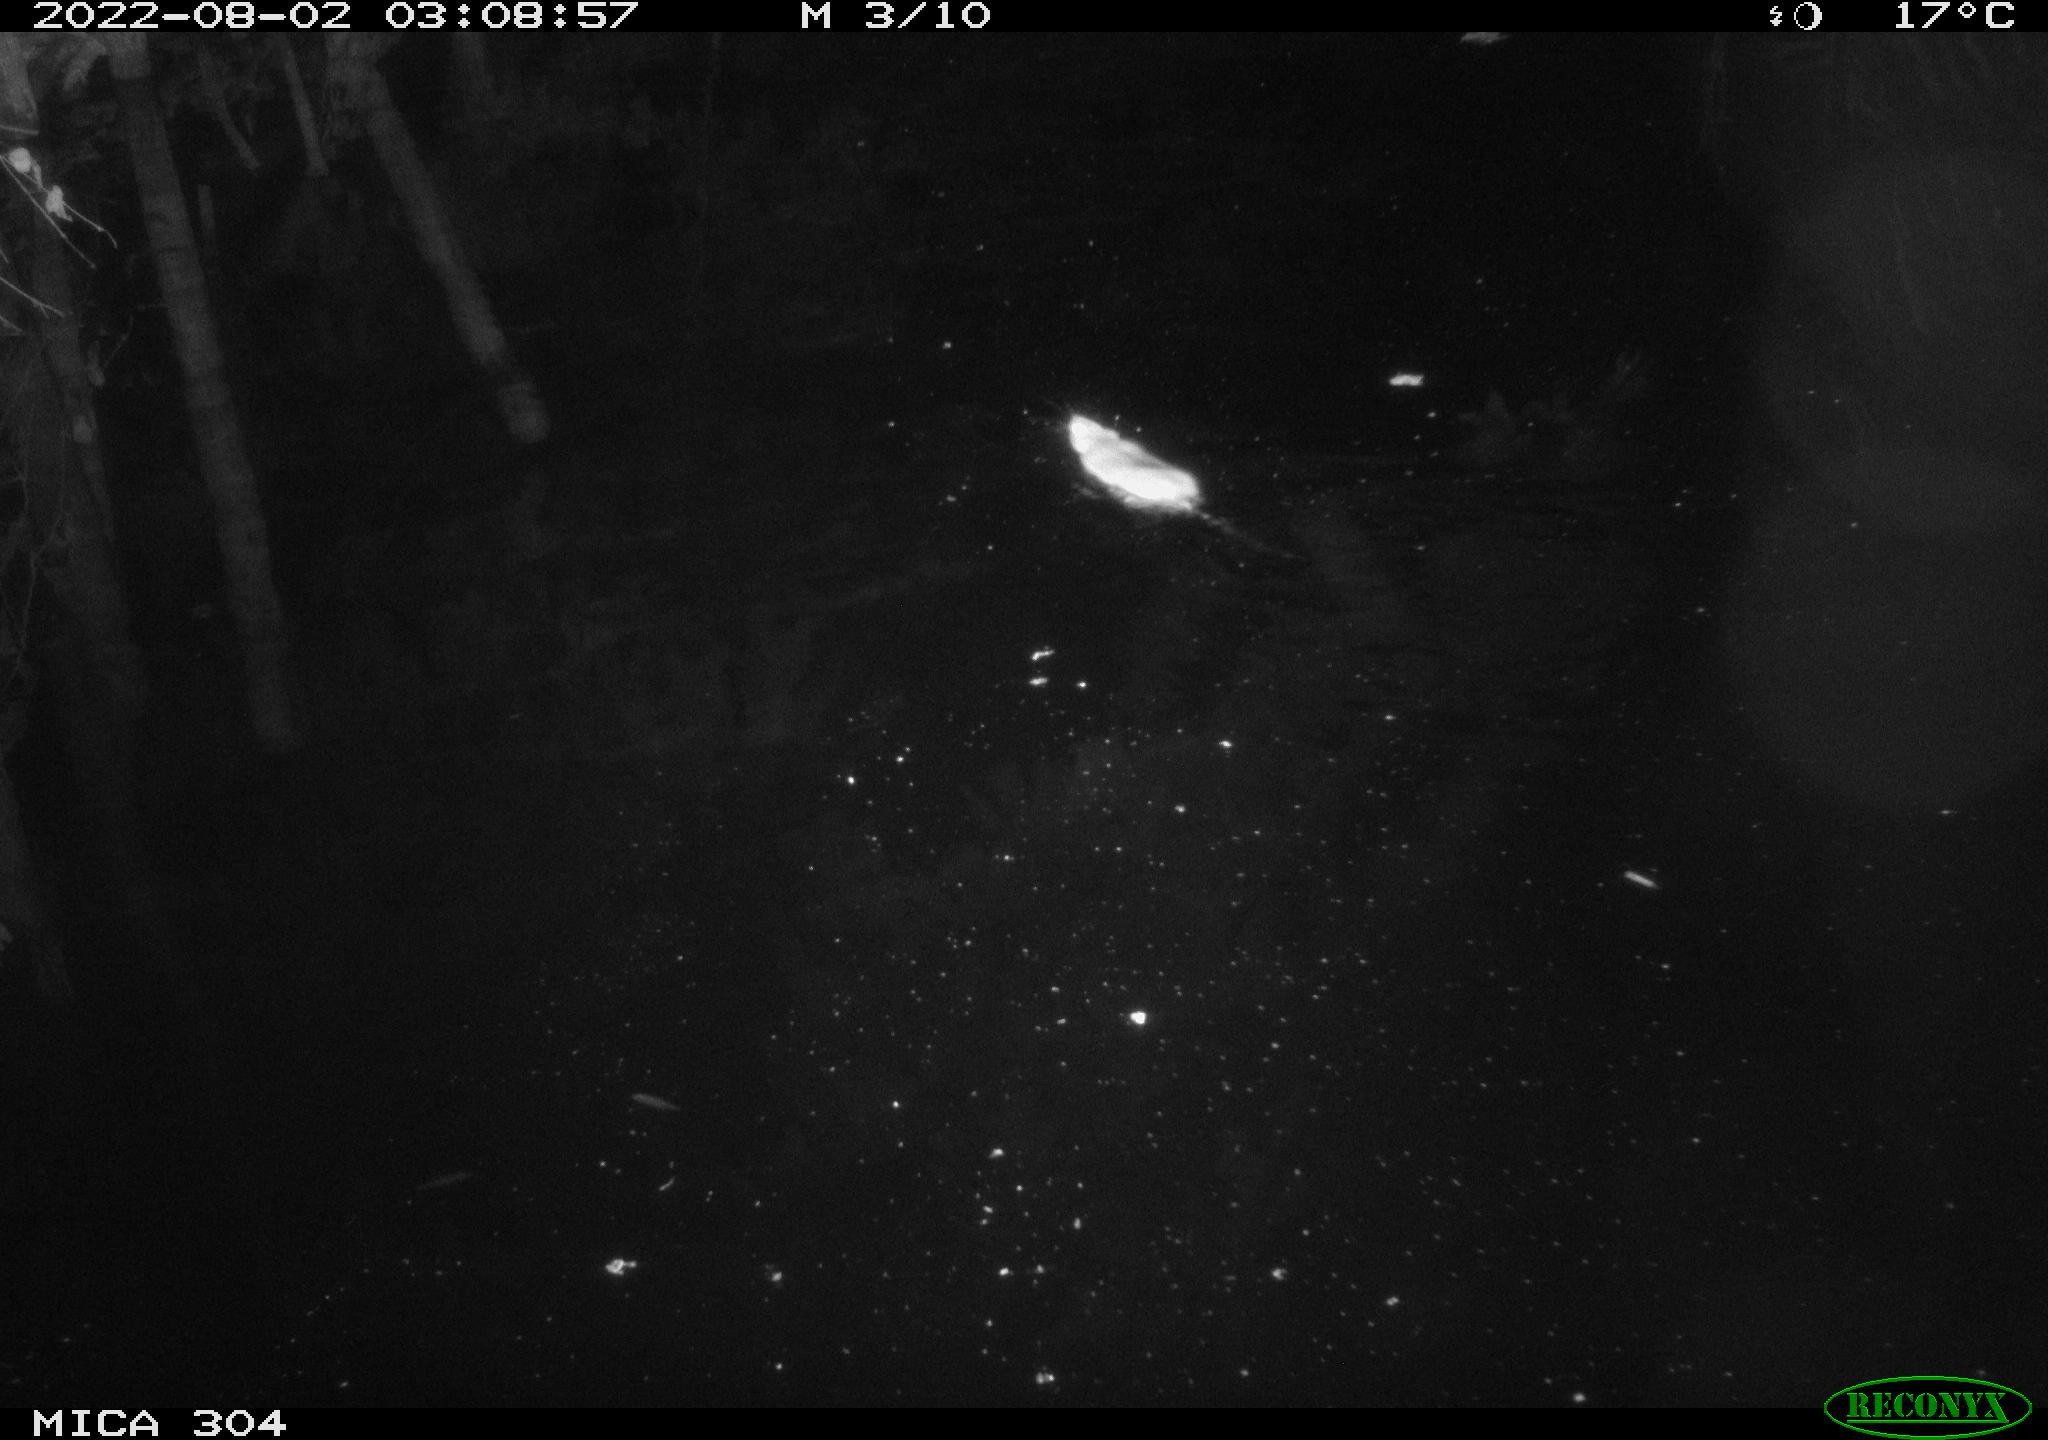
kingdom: Animalia
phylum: Chordata
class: Mammalia
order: Rodentia
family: Muridae
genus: Rattus
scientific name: Rattus norvegicus
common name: Brown rat
